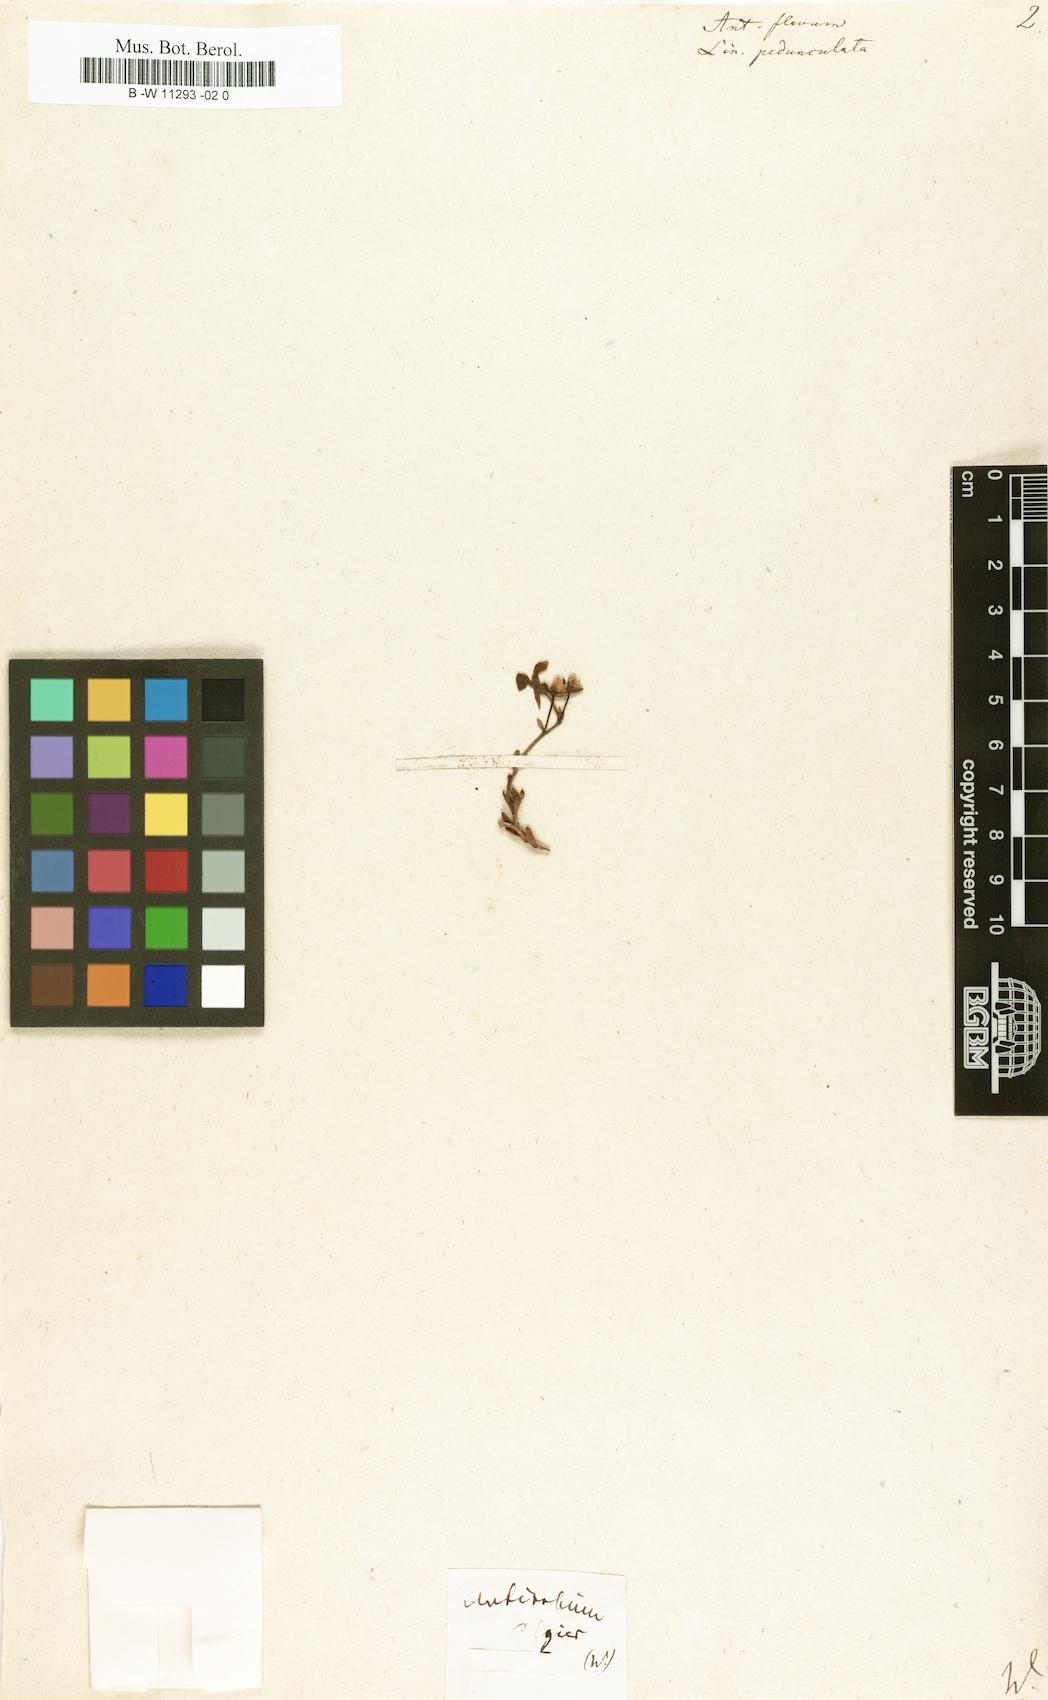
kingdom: Plantae
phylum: Tracheophyta
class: Magnoliopsida
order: Lamiales
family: Plantaginaceae
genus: Linaria
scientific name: Linaria pedunculata
